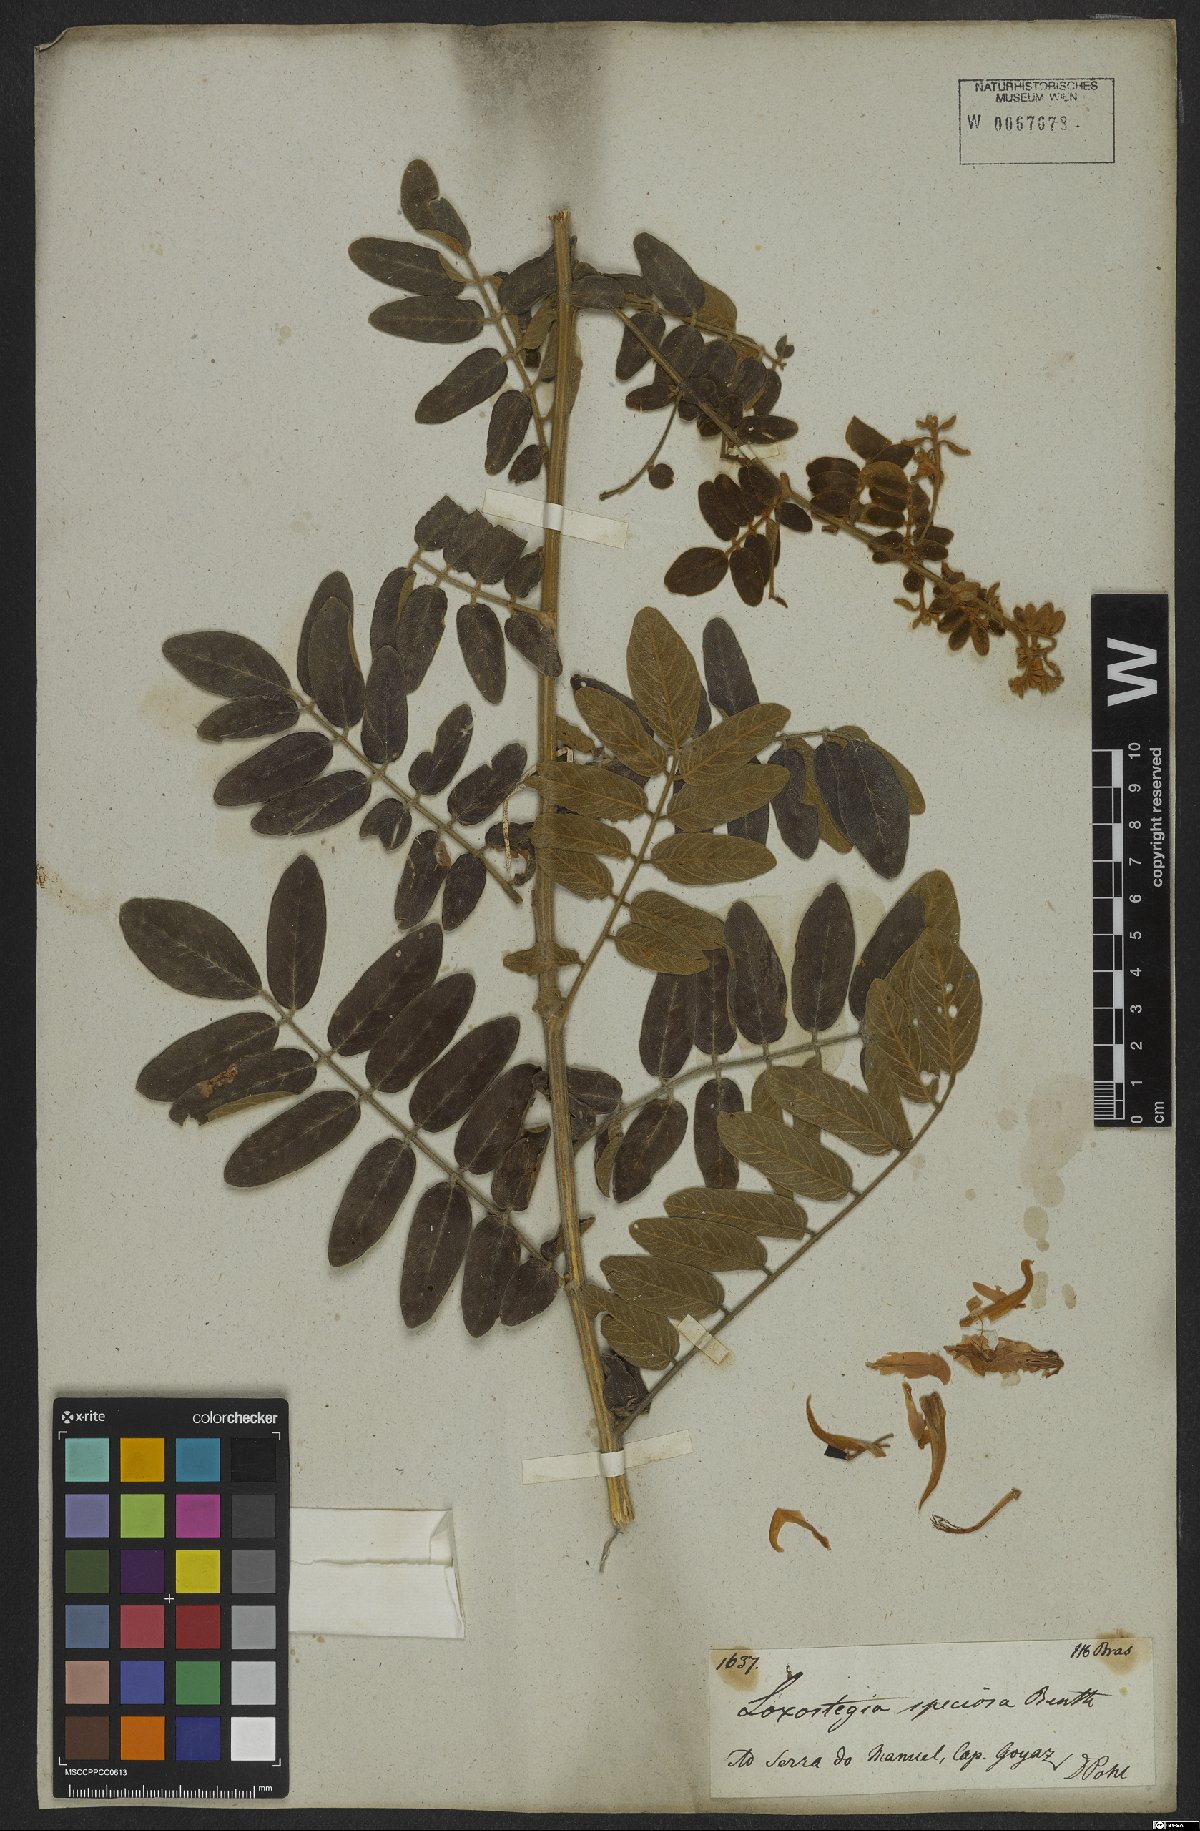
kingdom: Plantae
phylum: Tracheophyta
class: Magnoliopsida
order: Fabales
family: Fabaceae
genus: Harpalyce
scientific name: Harpalyce brasiliana
